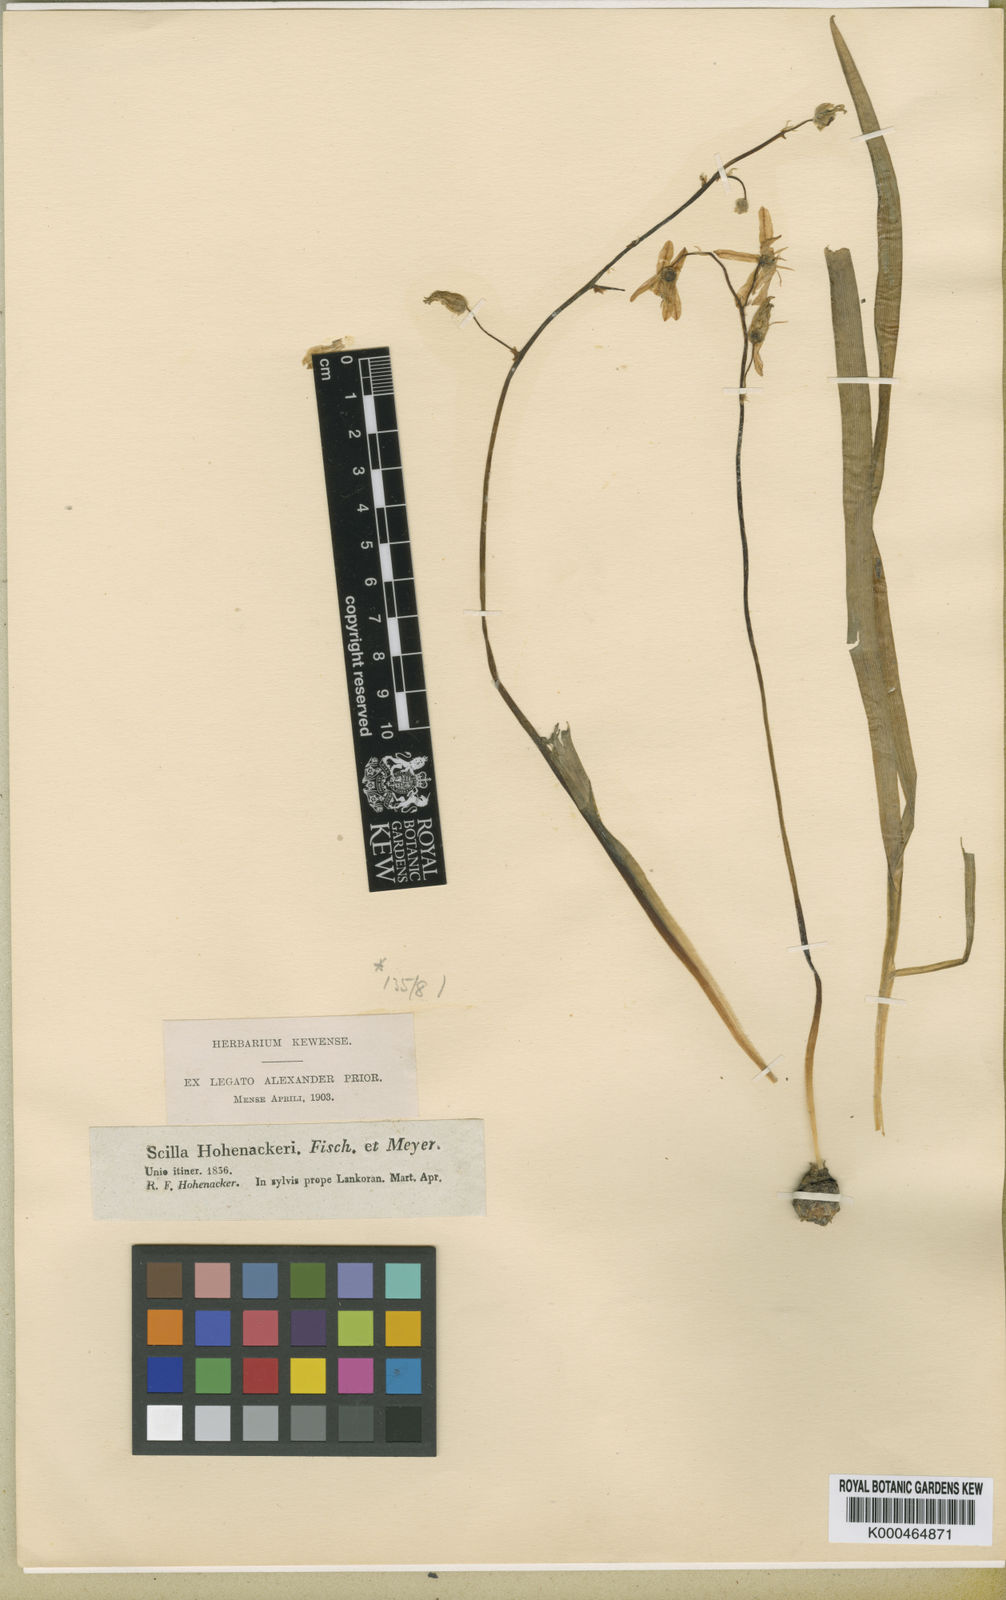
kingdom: Plantae
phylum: Tracheophyta
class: Liliopsida
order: Asparagales
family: Asparagaceae
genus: Fessia
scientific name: Fessia hohenackeri
